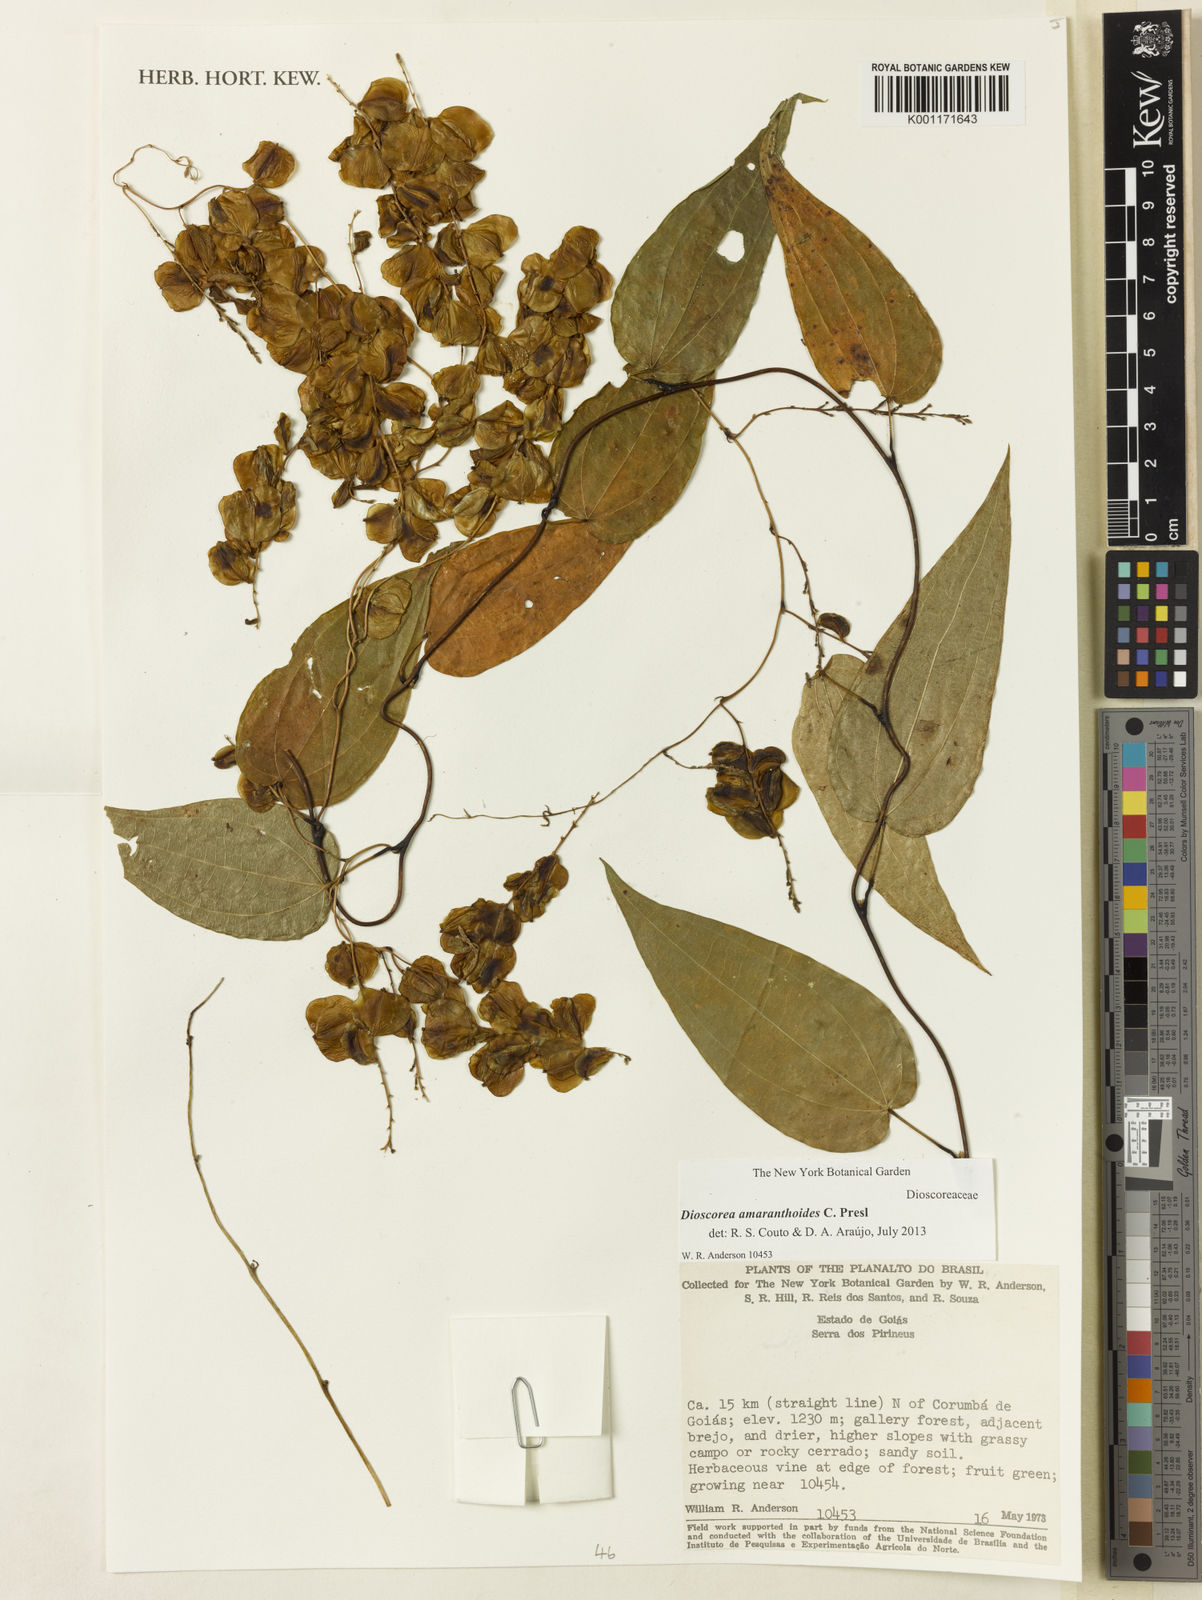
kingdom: Plantae
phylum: Tracheophyta
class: Liliopsida
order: Dioscoreales
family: Dioscoreaceae
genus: Dioscorea
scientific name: Dioscorea amaranthoides
